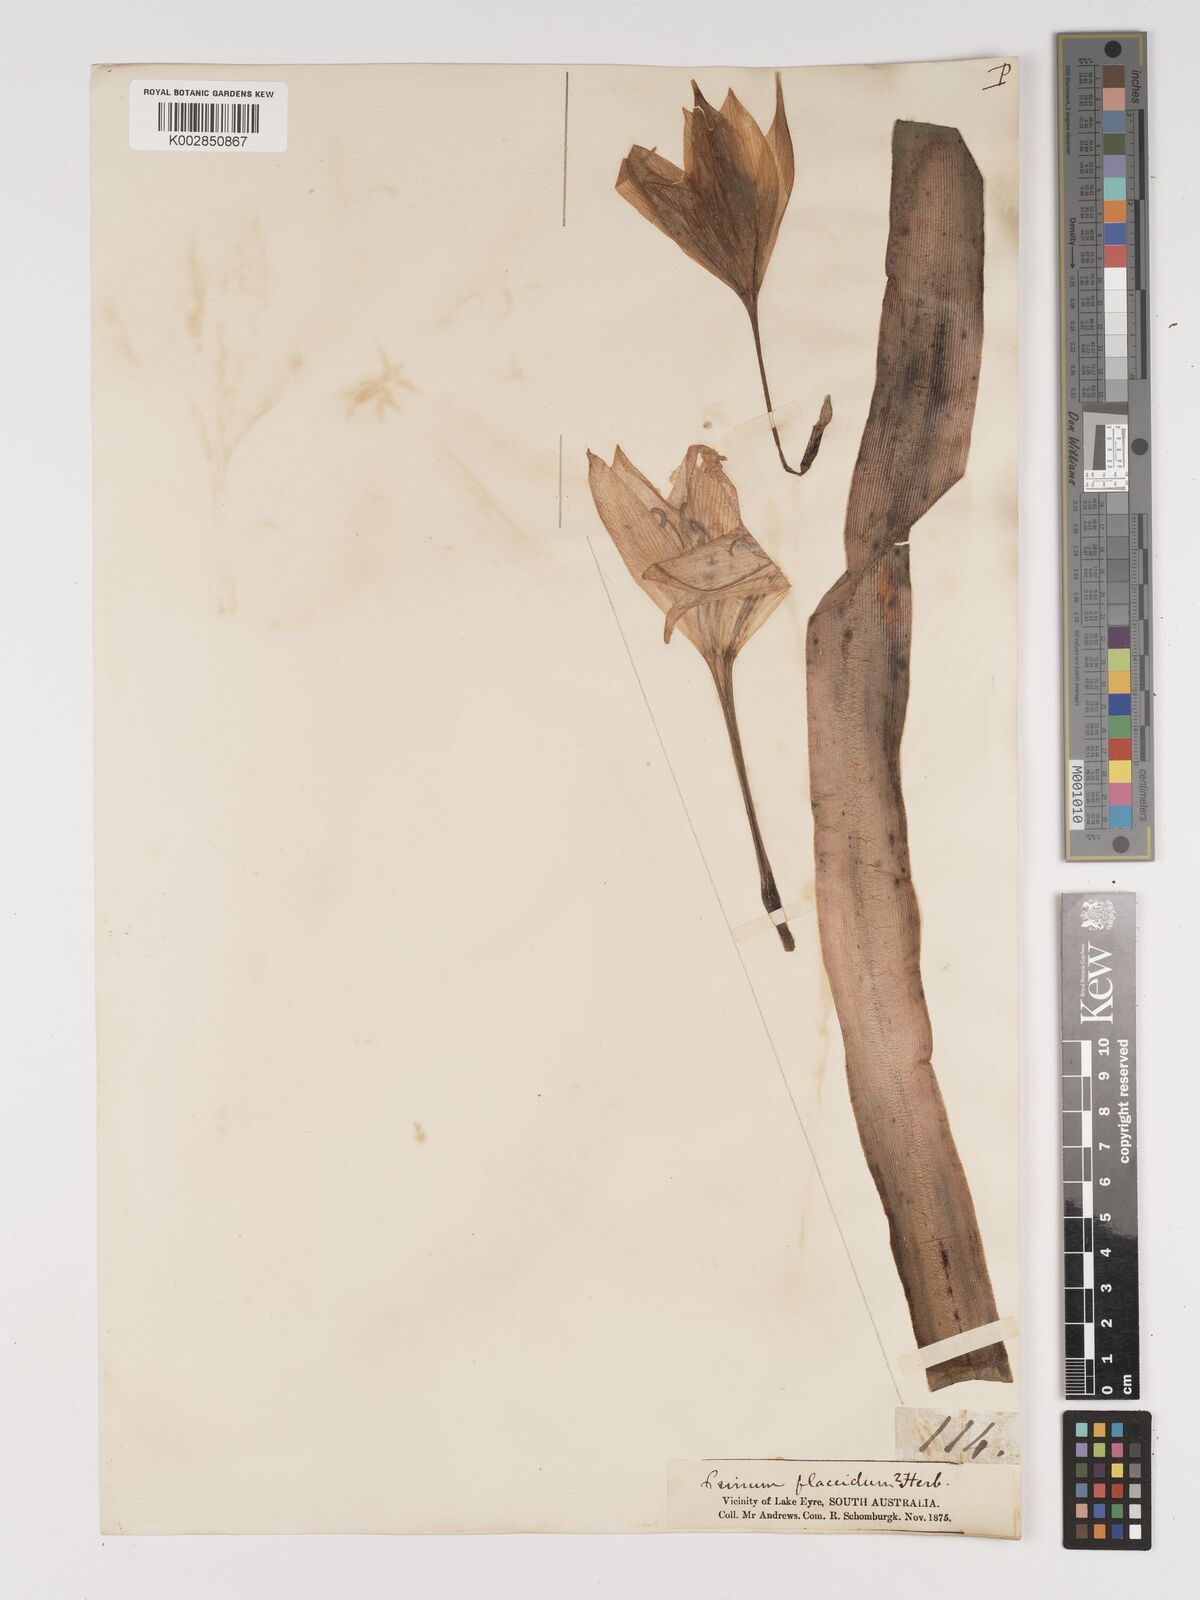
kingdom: Plantae
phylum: Tracheophyta
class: Liliopsida
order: Asparagales
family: Amaryllidaceae
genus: Crinum
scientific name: Crinum flaccidum
